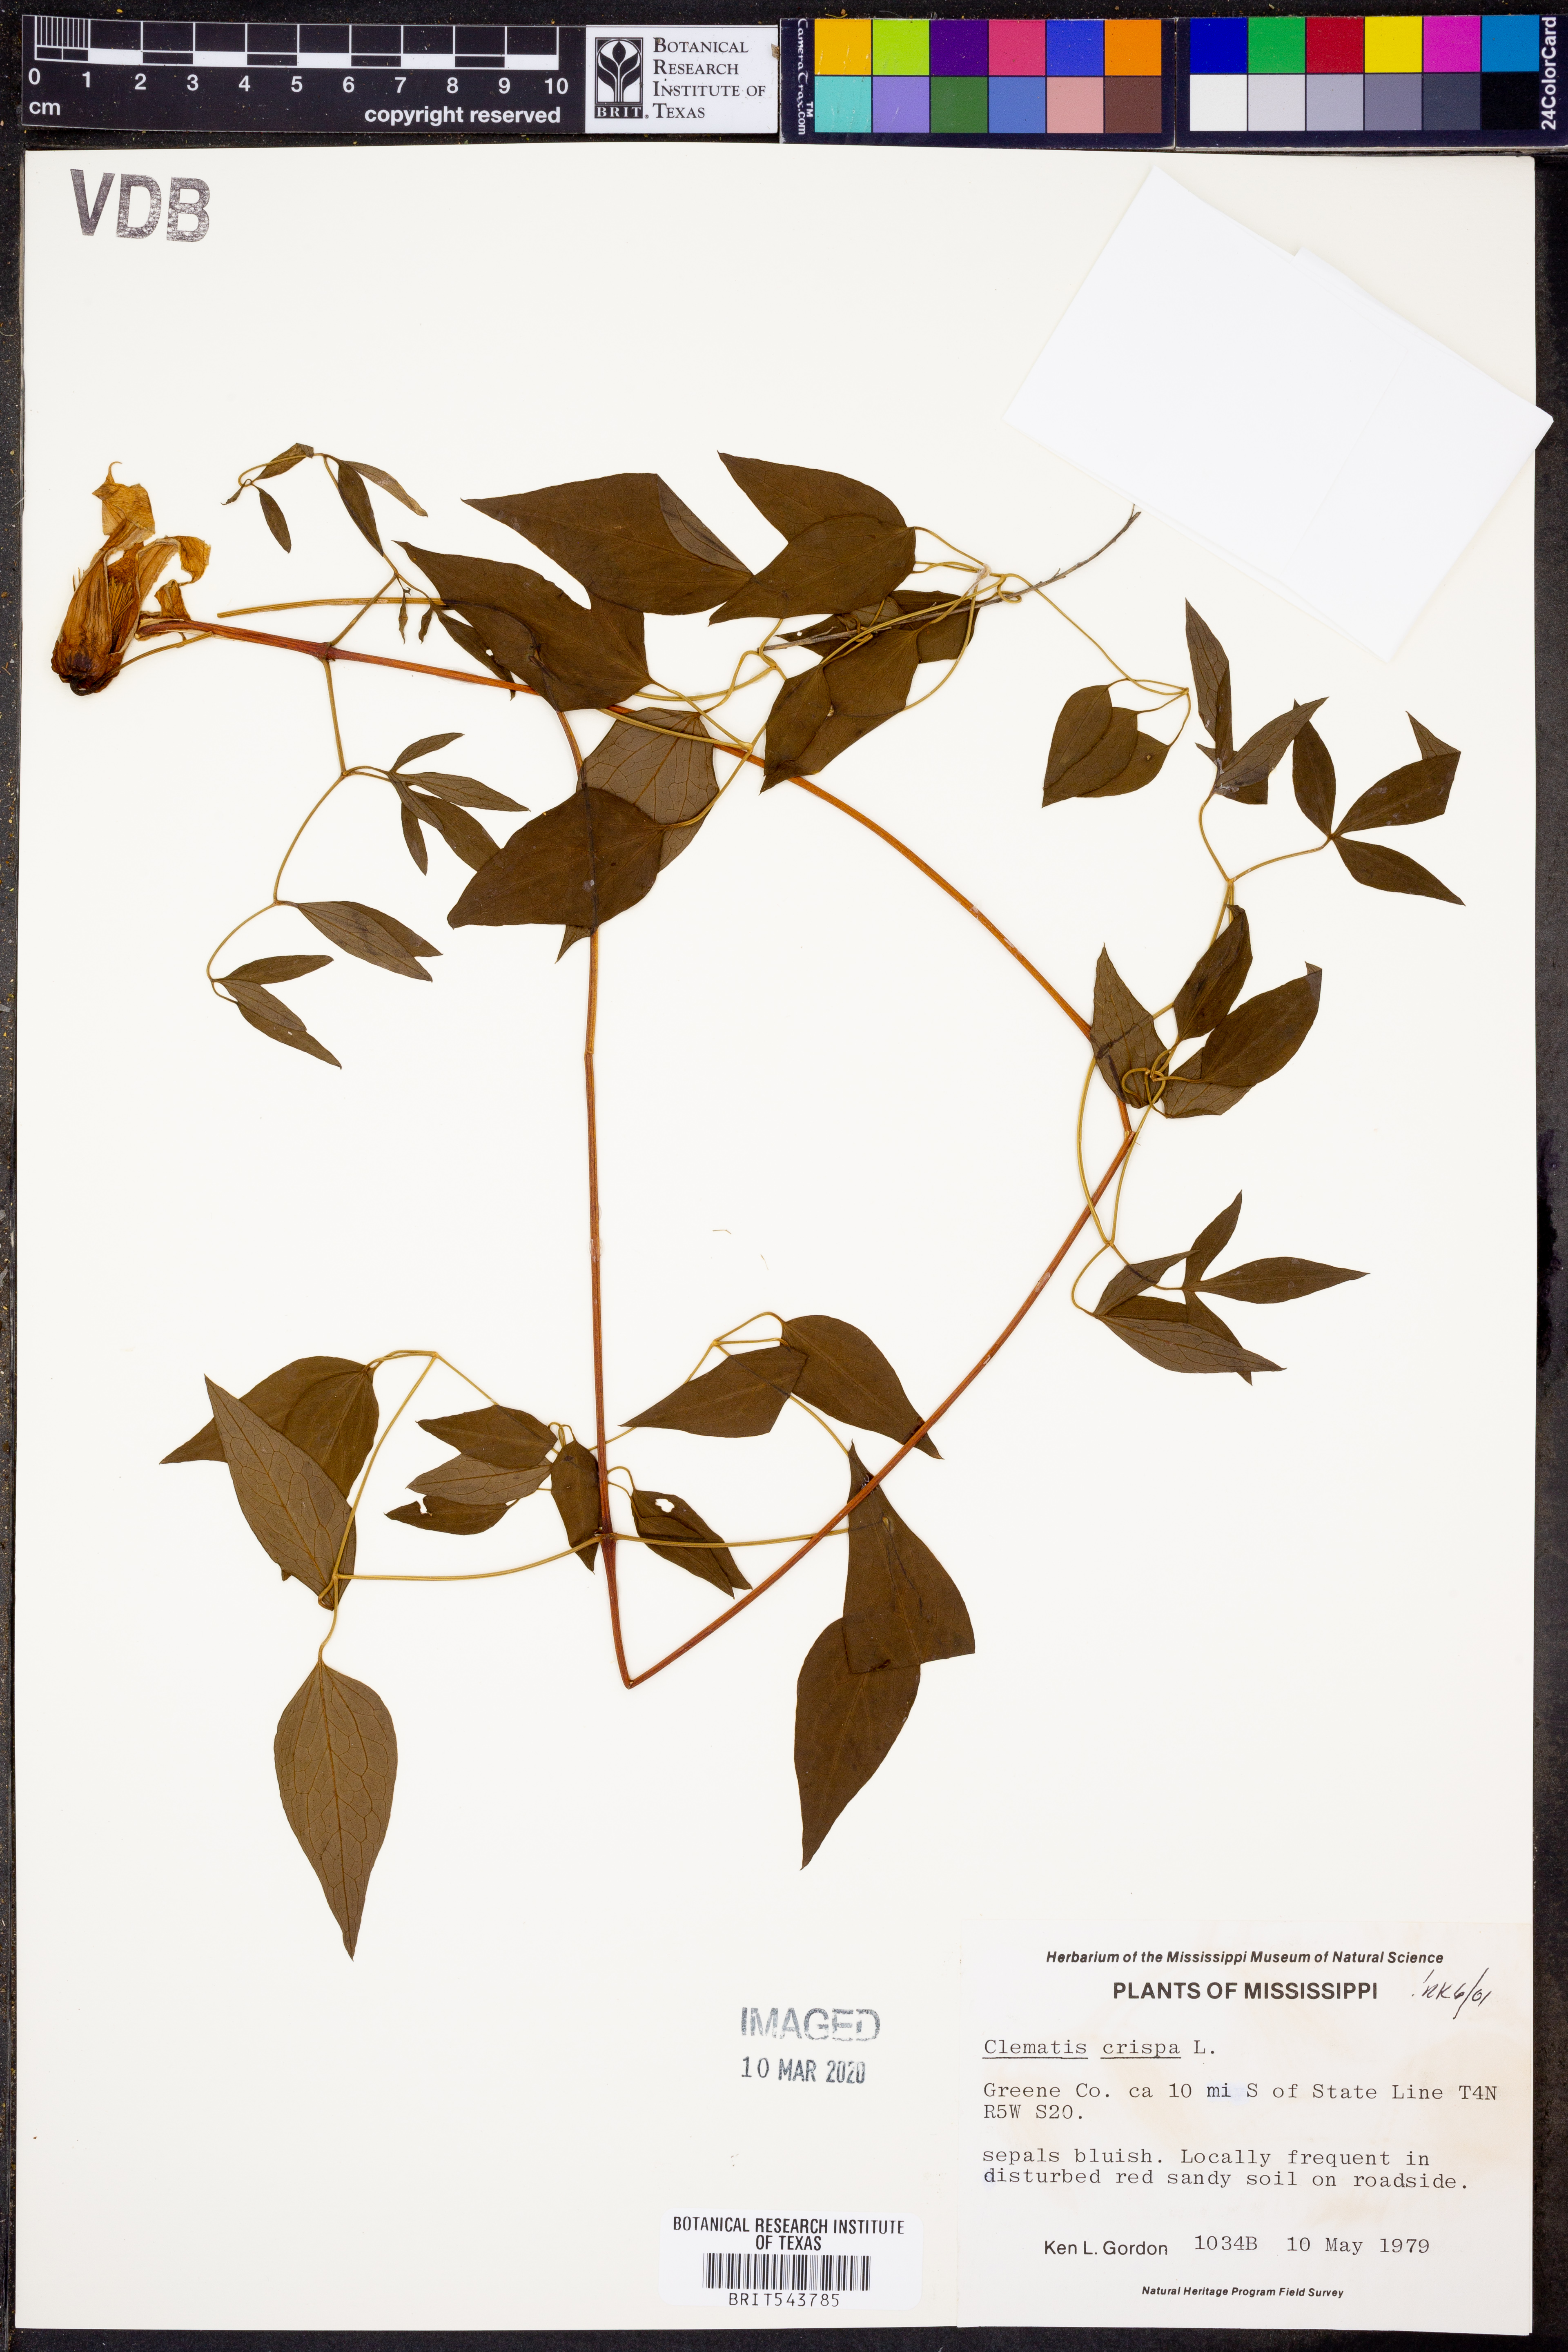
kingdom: Plantae
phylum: Tracheophyta
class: Magnoliopsida
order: Ranunculales
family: Ranunculaceae
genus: Clematis
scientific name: Clematis crispa
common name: Curly clematis
